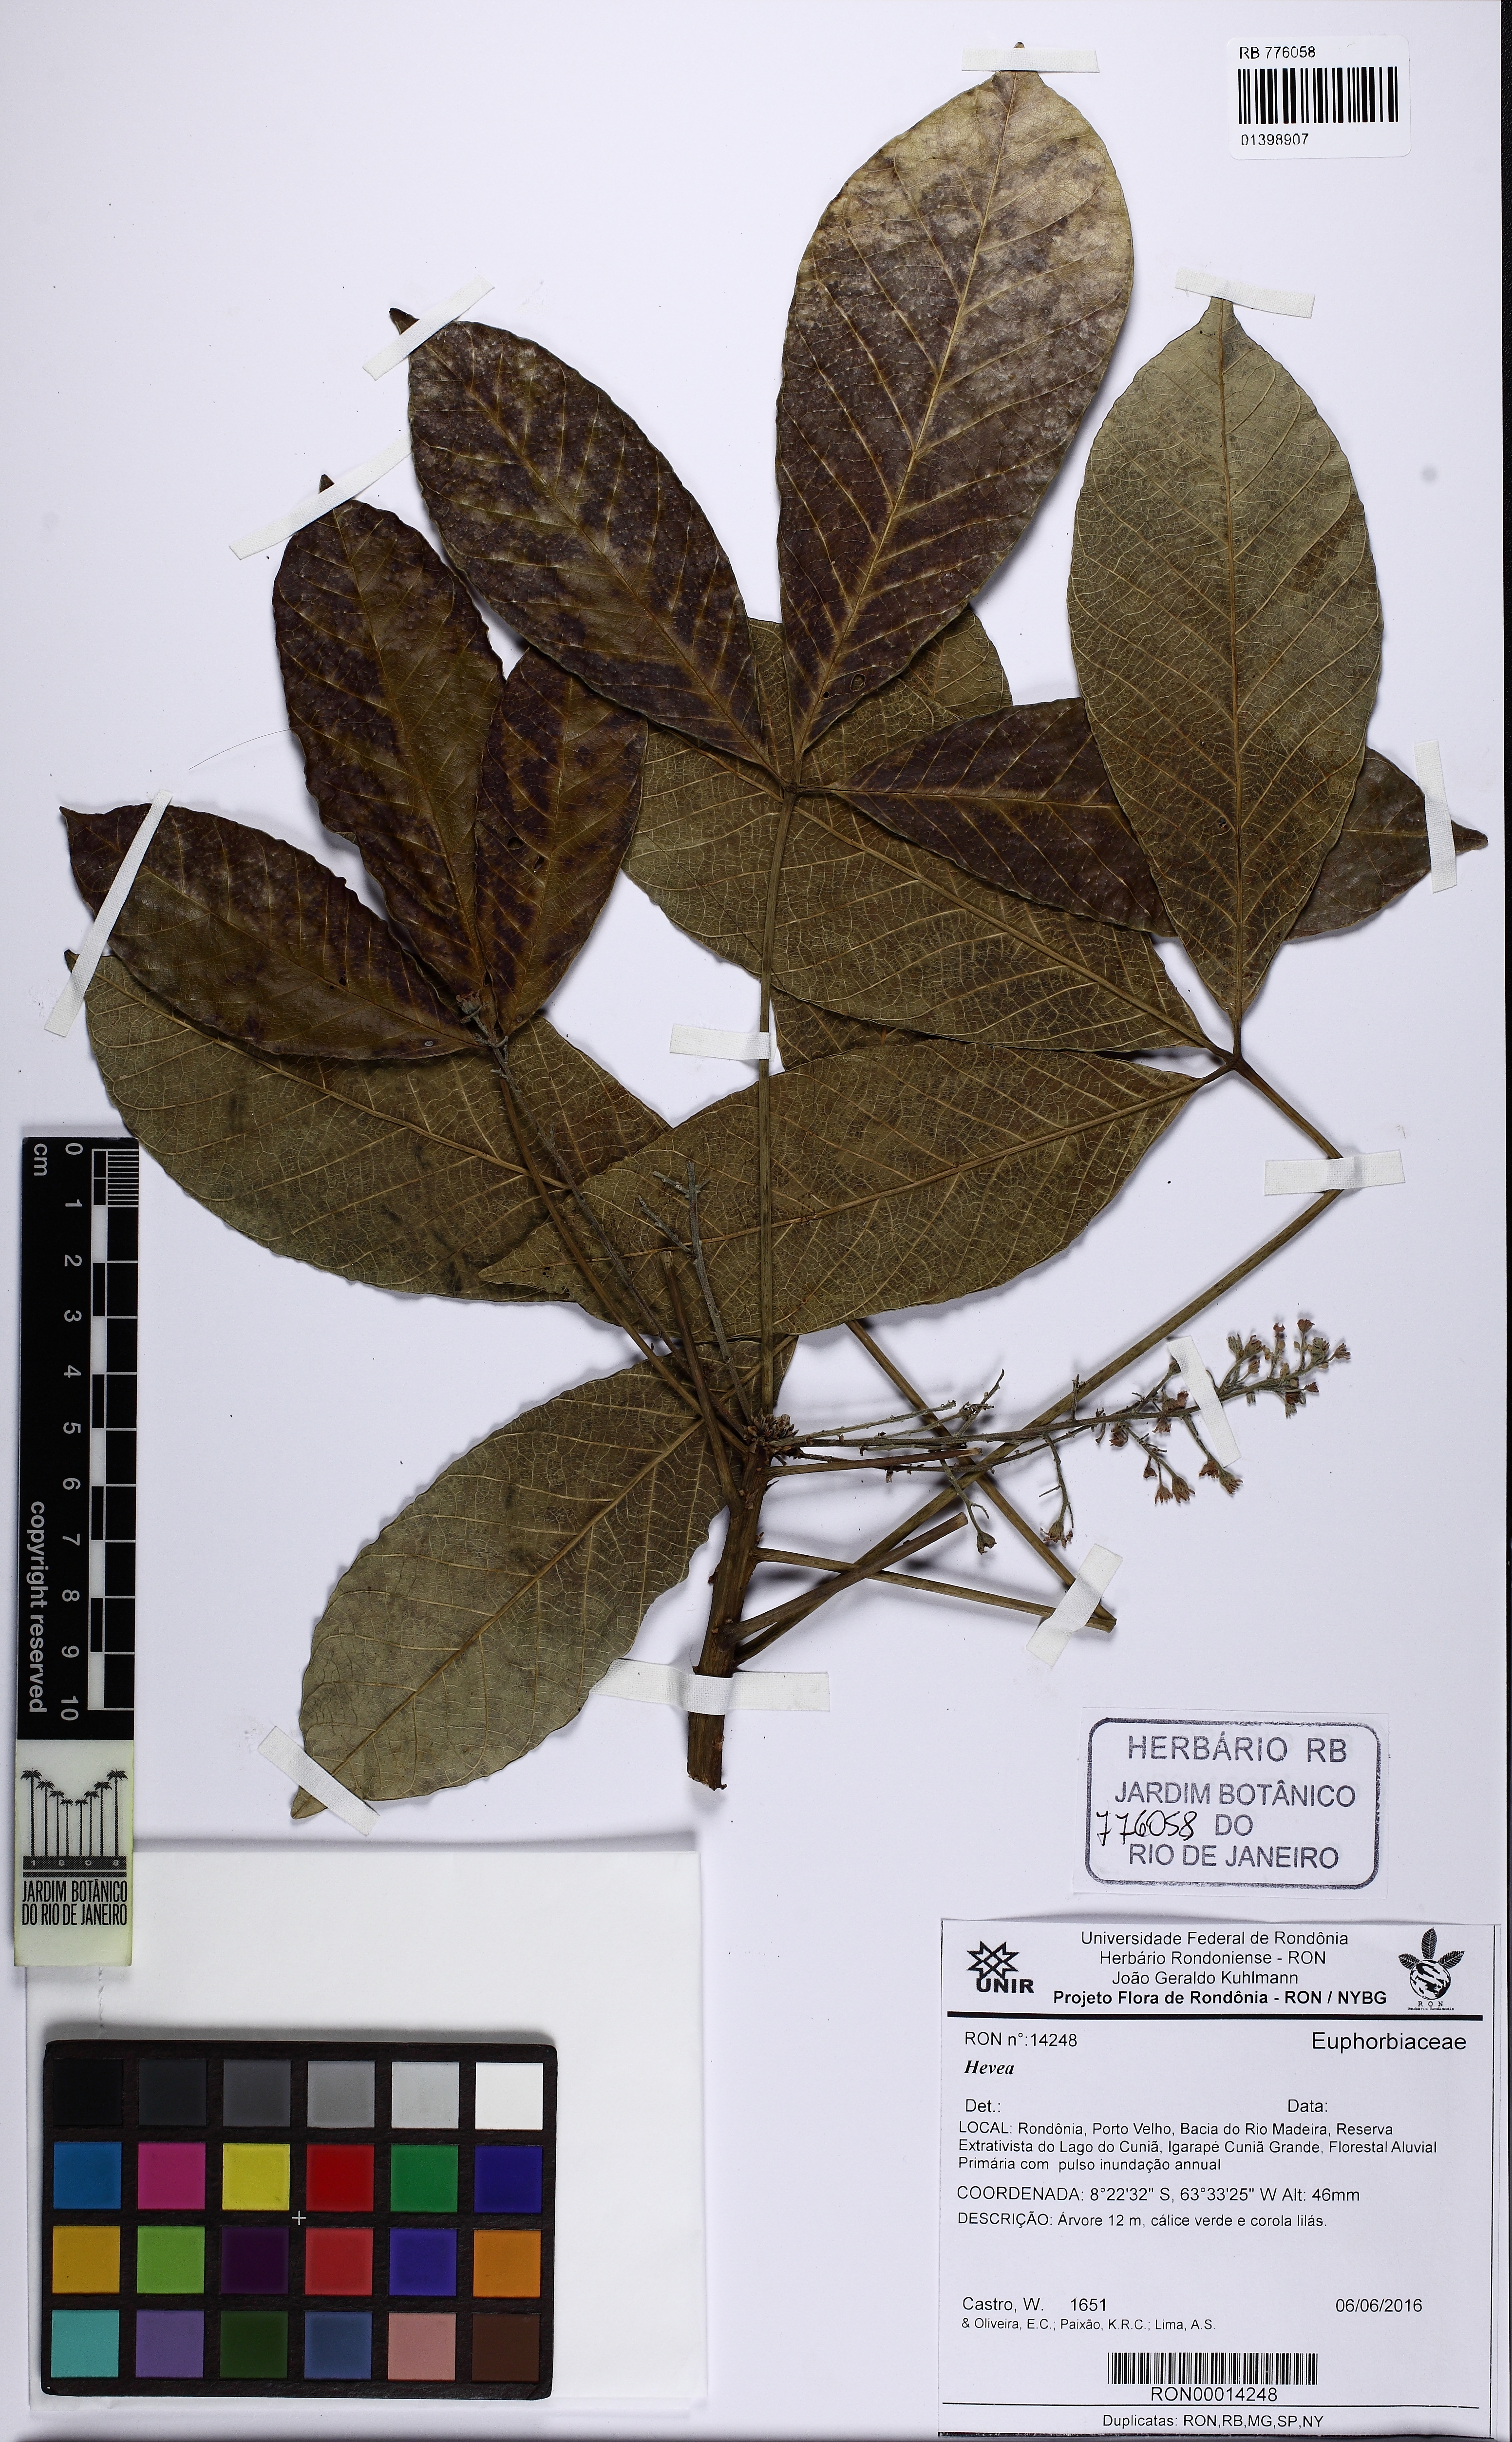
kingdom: Plantae
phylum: Tracheophyta
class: Magnoliopsida
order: Malpighiales
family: Euphorbiaceae
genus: Hevea
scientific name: Hevea
